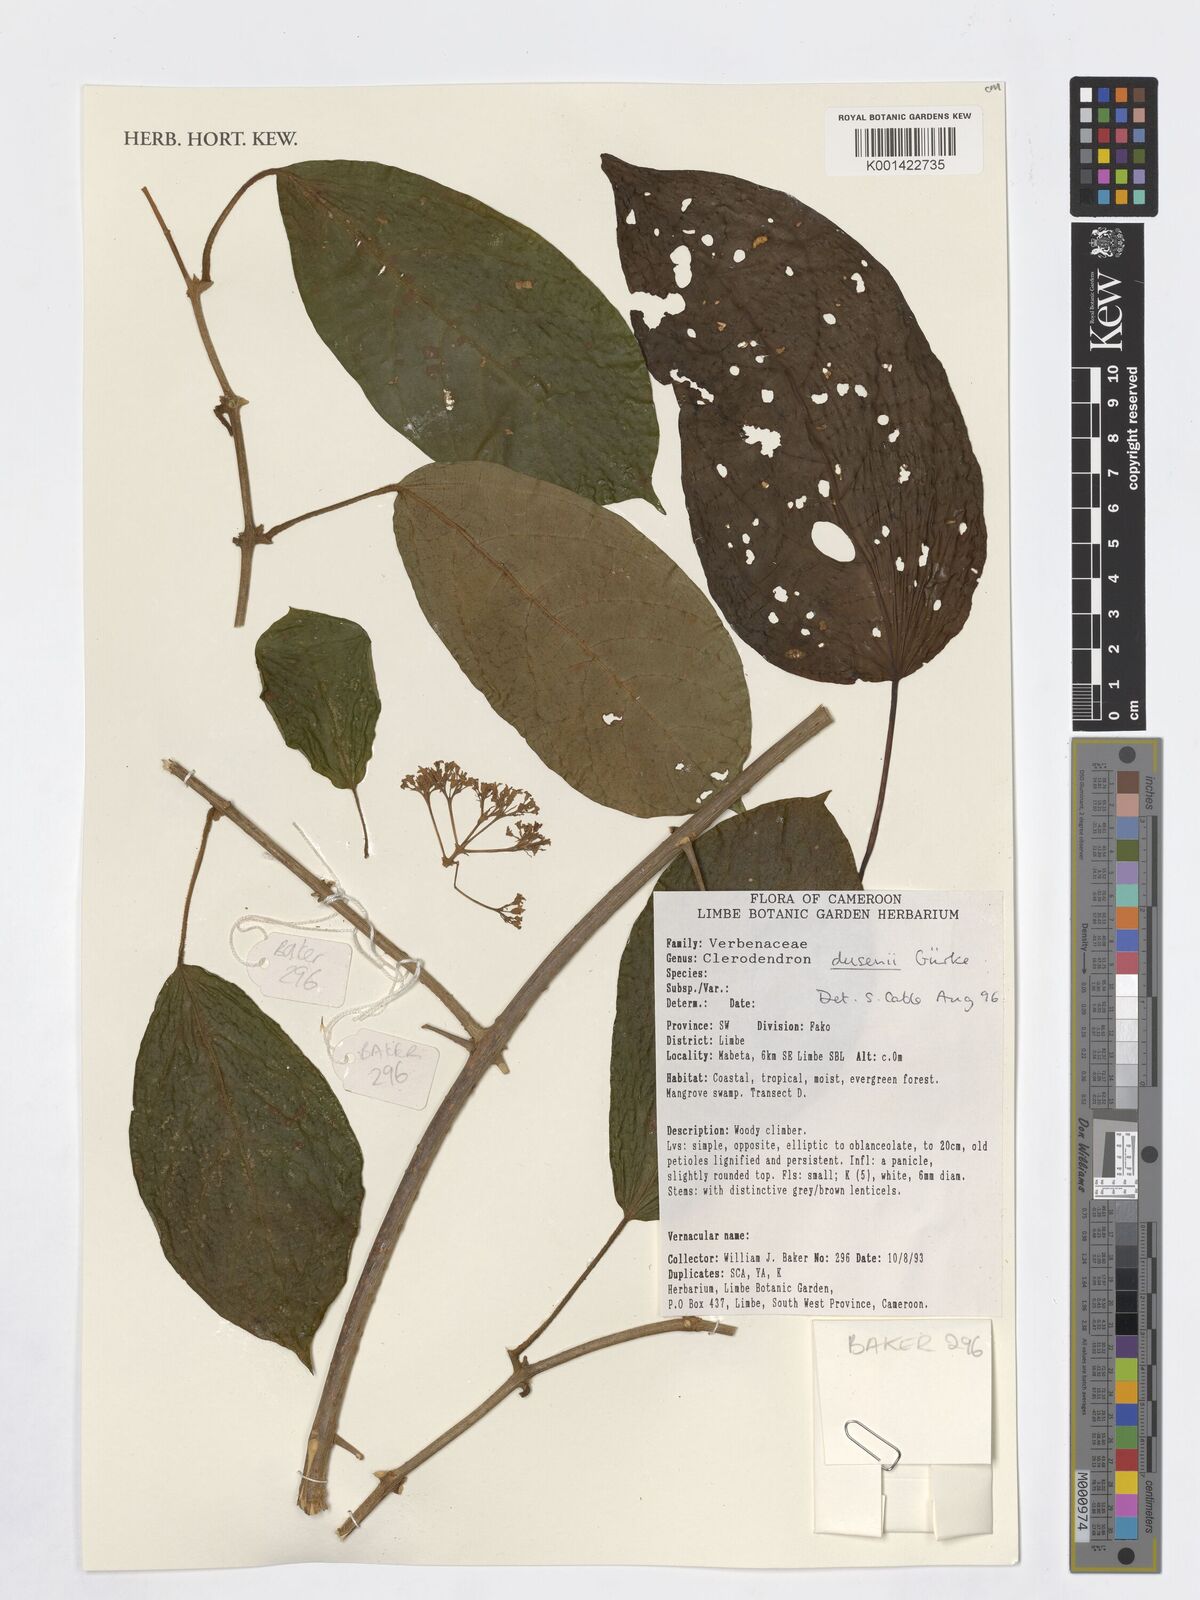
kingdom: Plantae
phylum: Tracheophyta
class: Magnoliopsida
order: Lamiales
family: Verbenaceae
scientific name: Verbenaceae
